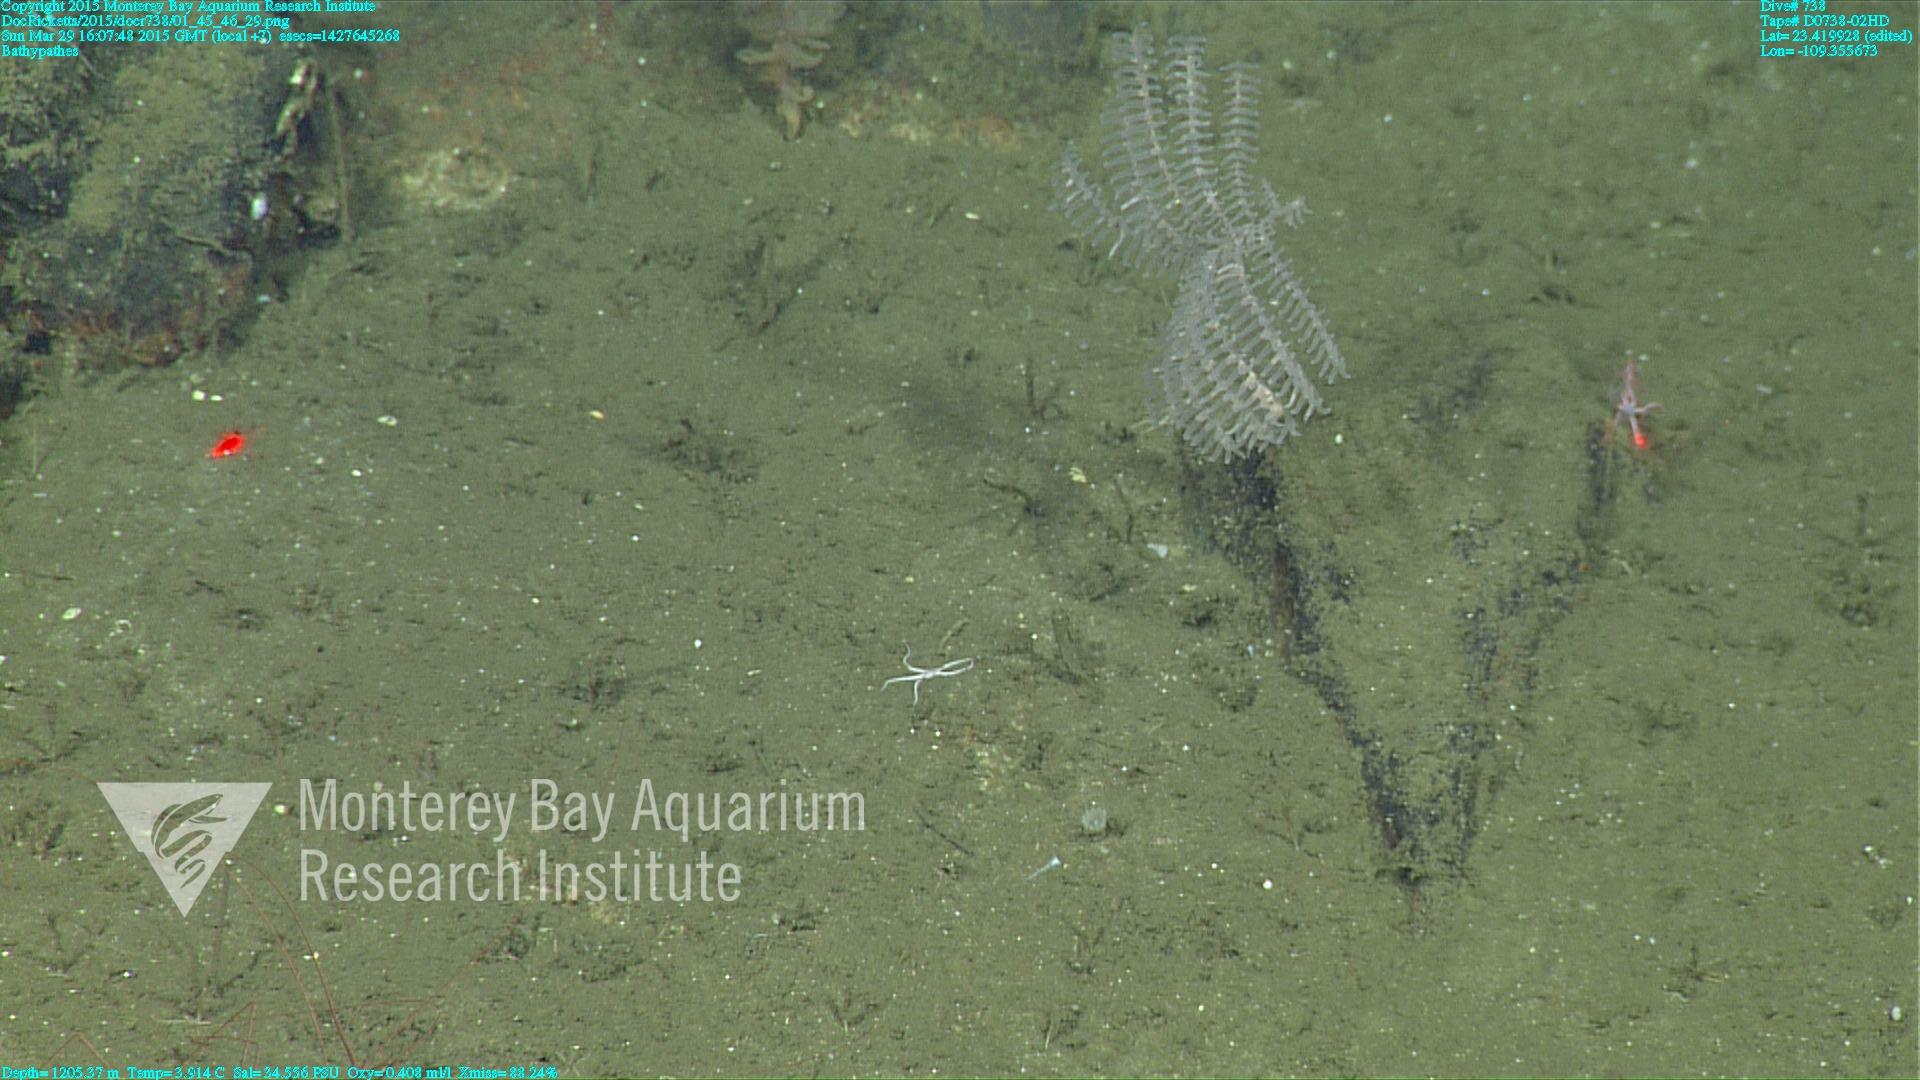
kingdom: Animalia
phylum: Cnidaria
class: Anthozoa
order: Antipatharia
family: Schizopathidae
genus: Bathypathes
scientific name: Bathypathes
